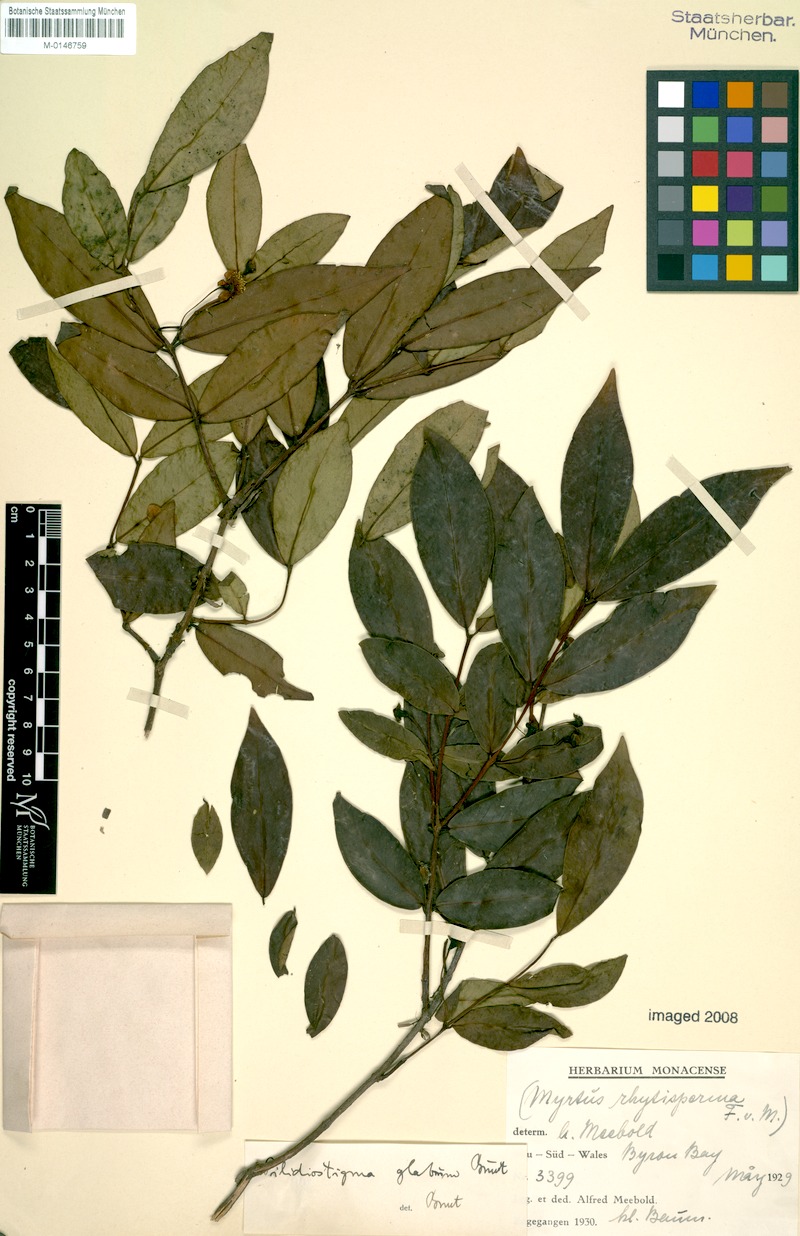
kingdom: Plantae
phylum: Tracheophyta
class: Magnoliopsida
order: Myrtales
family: Myrtaceae
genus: Pilidiostigma
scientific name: Pilidiostigma glabrum
